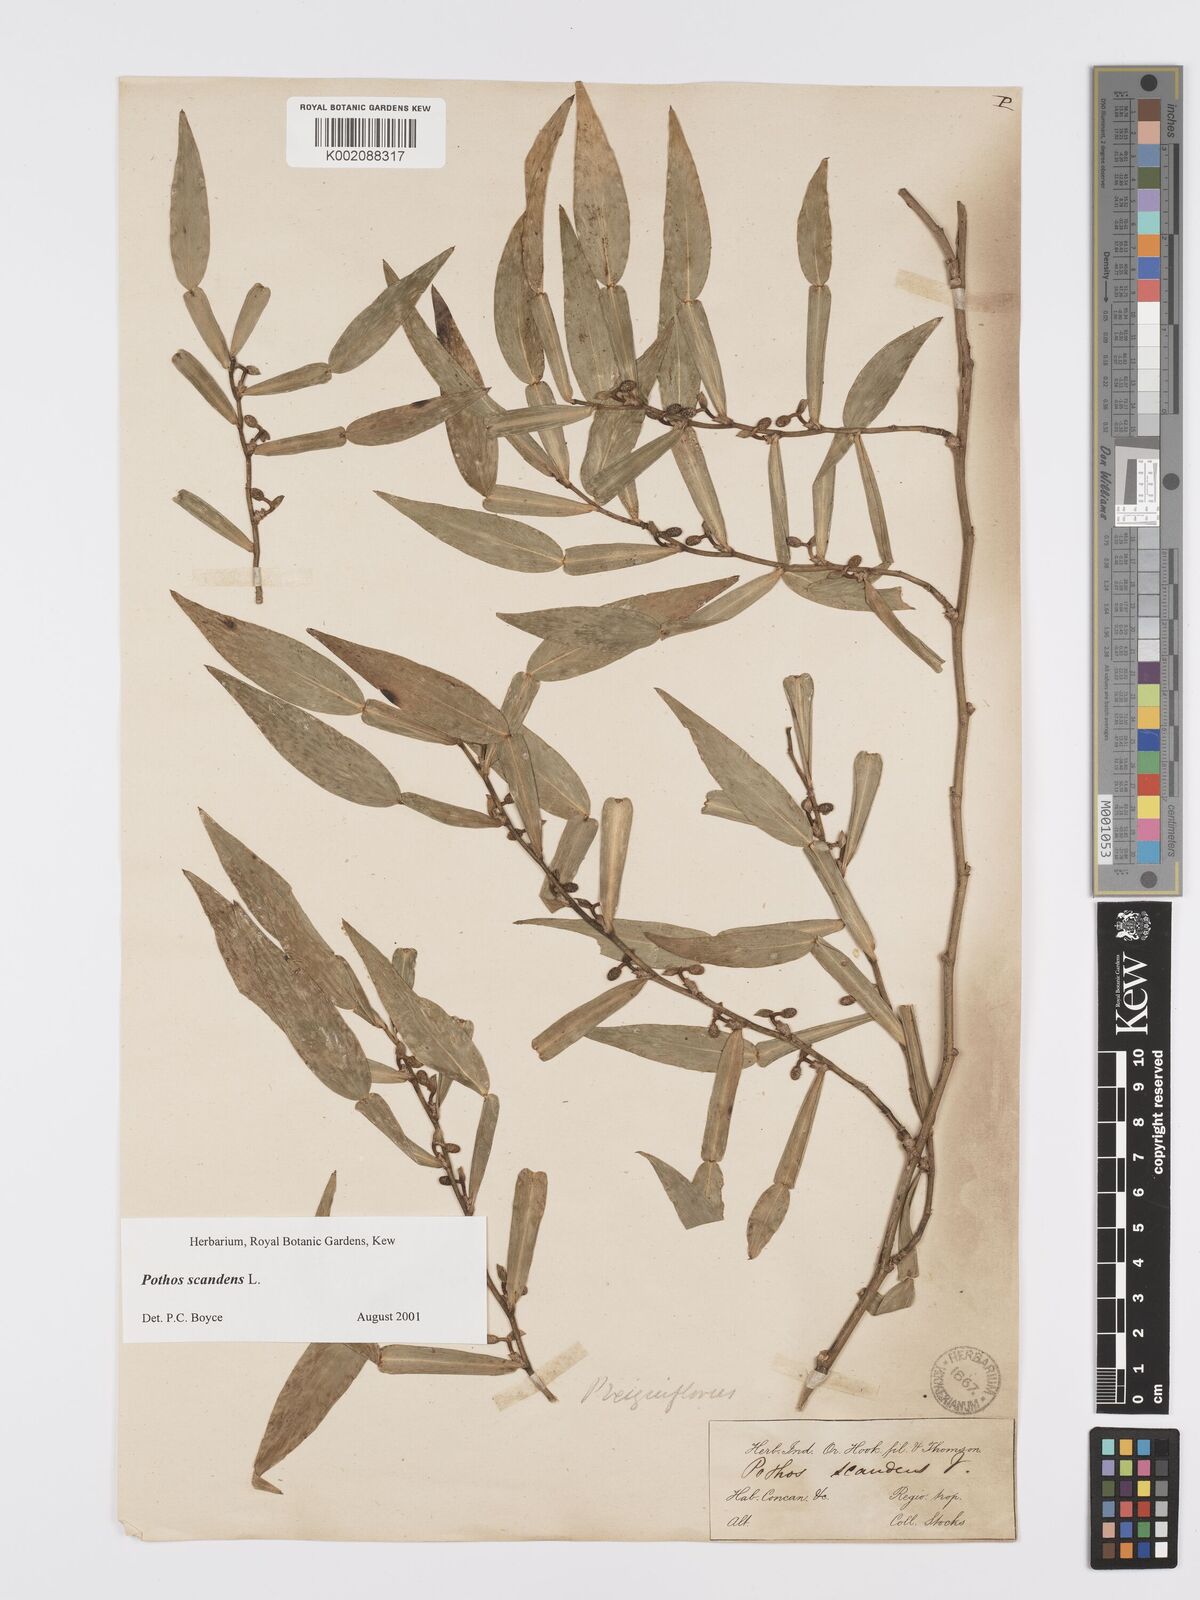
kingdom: Plantae
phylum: Tracheophyta
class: Liliopsida
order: Alismatales
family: Araceae
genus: Pothos
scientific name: Pothos scandens
